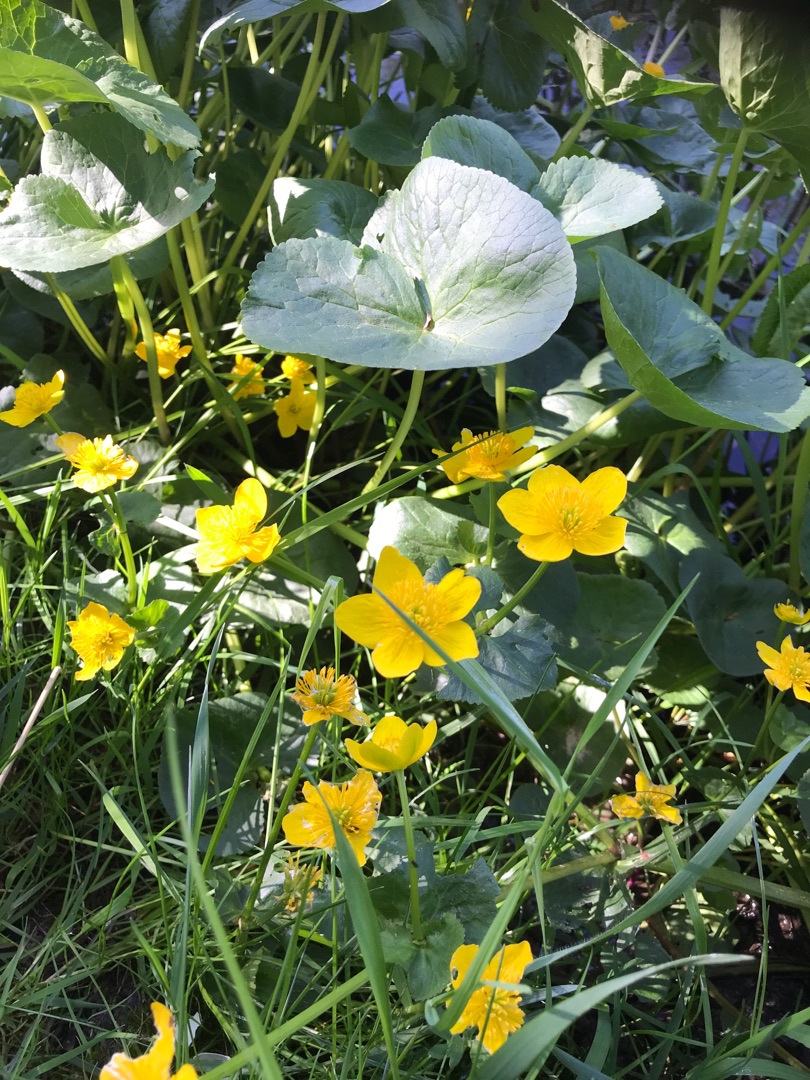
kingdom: Plantae
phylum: Tracheophyta
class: Magnoliopsida
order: Ranunculales
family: Ranunculaceae
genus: Caltha
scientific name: Caltha palustris
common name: Eng-kabbeleje
